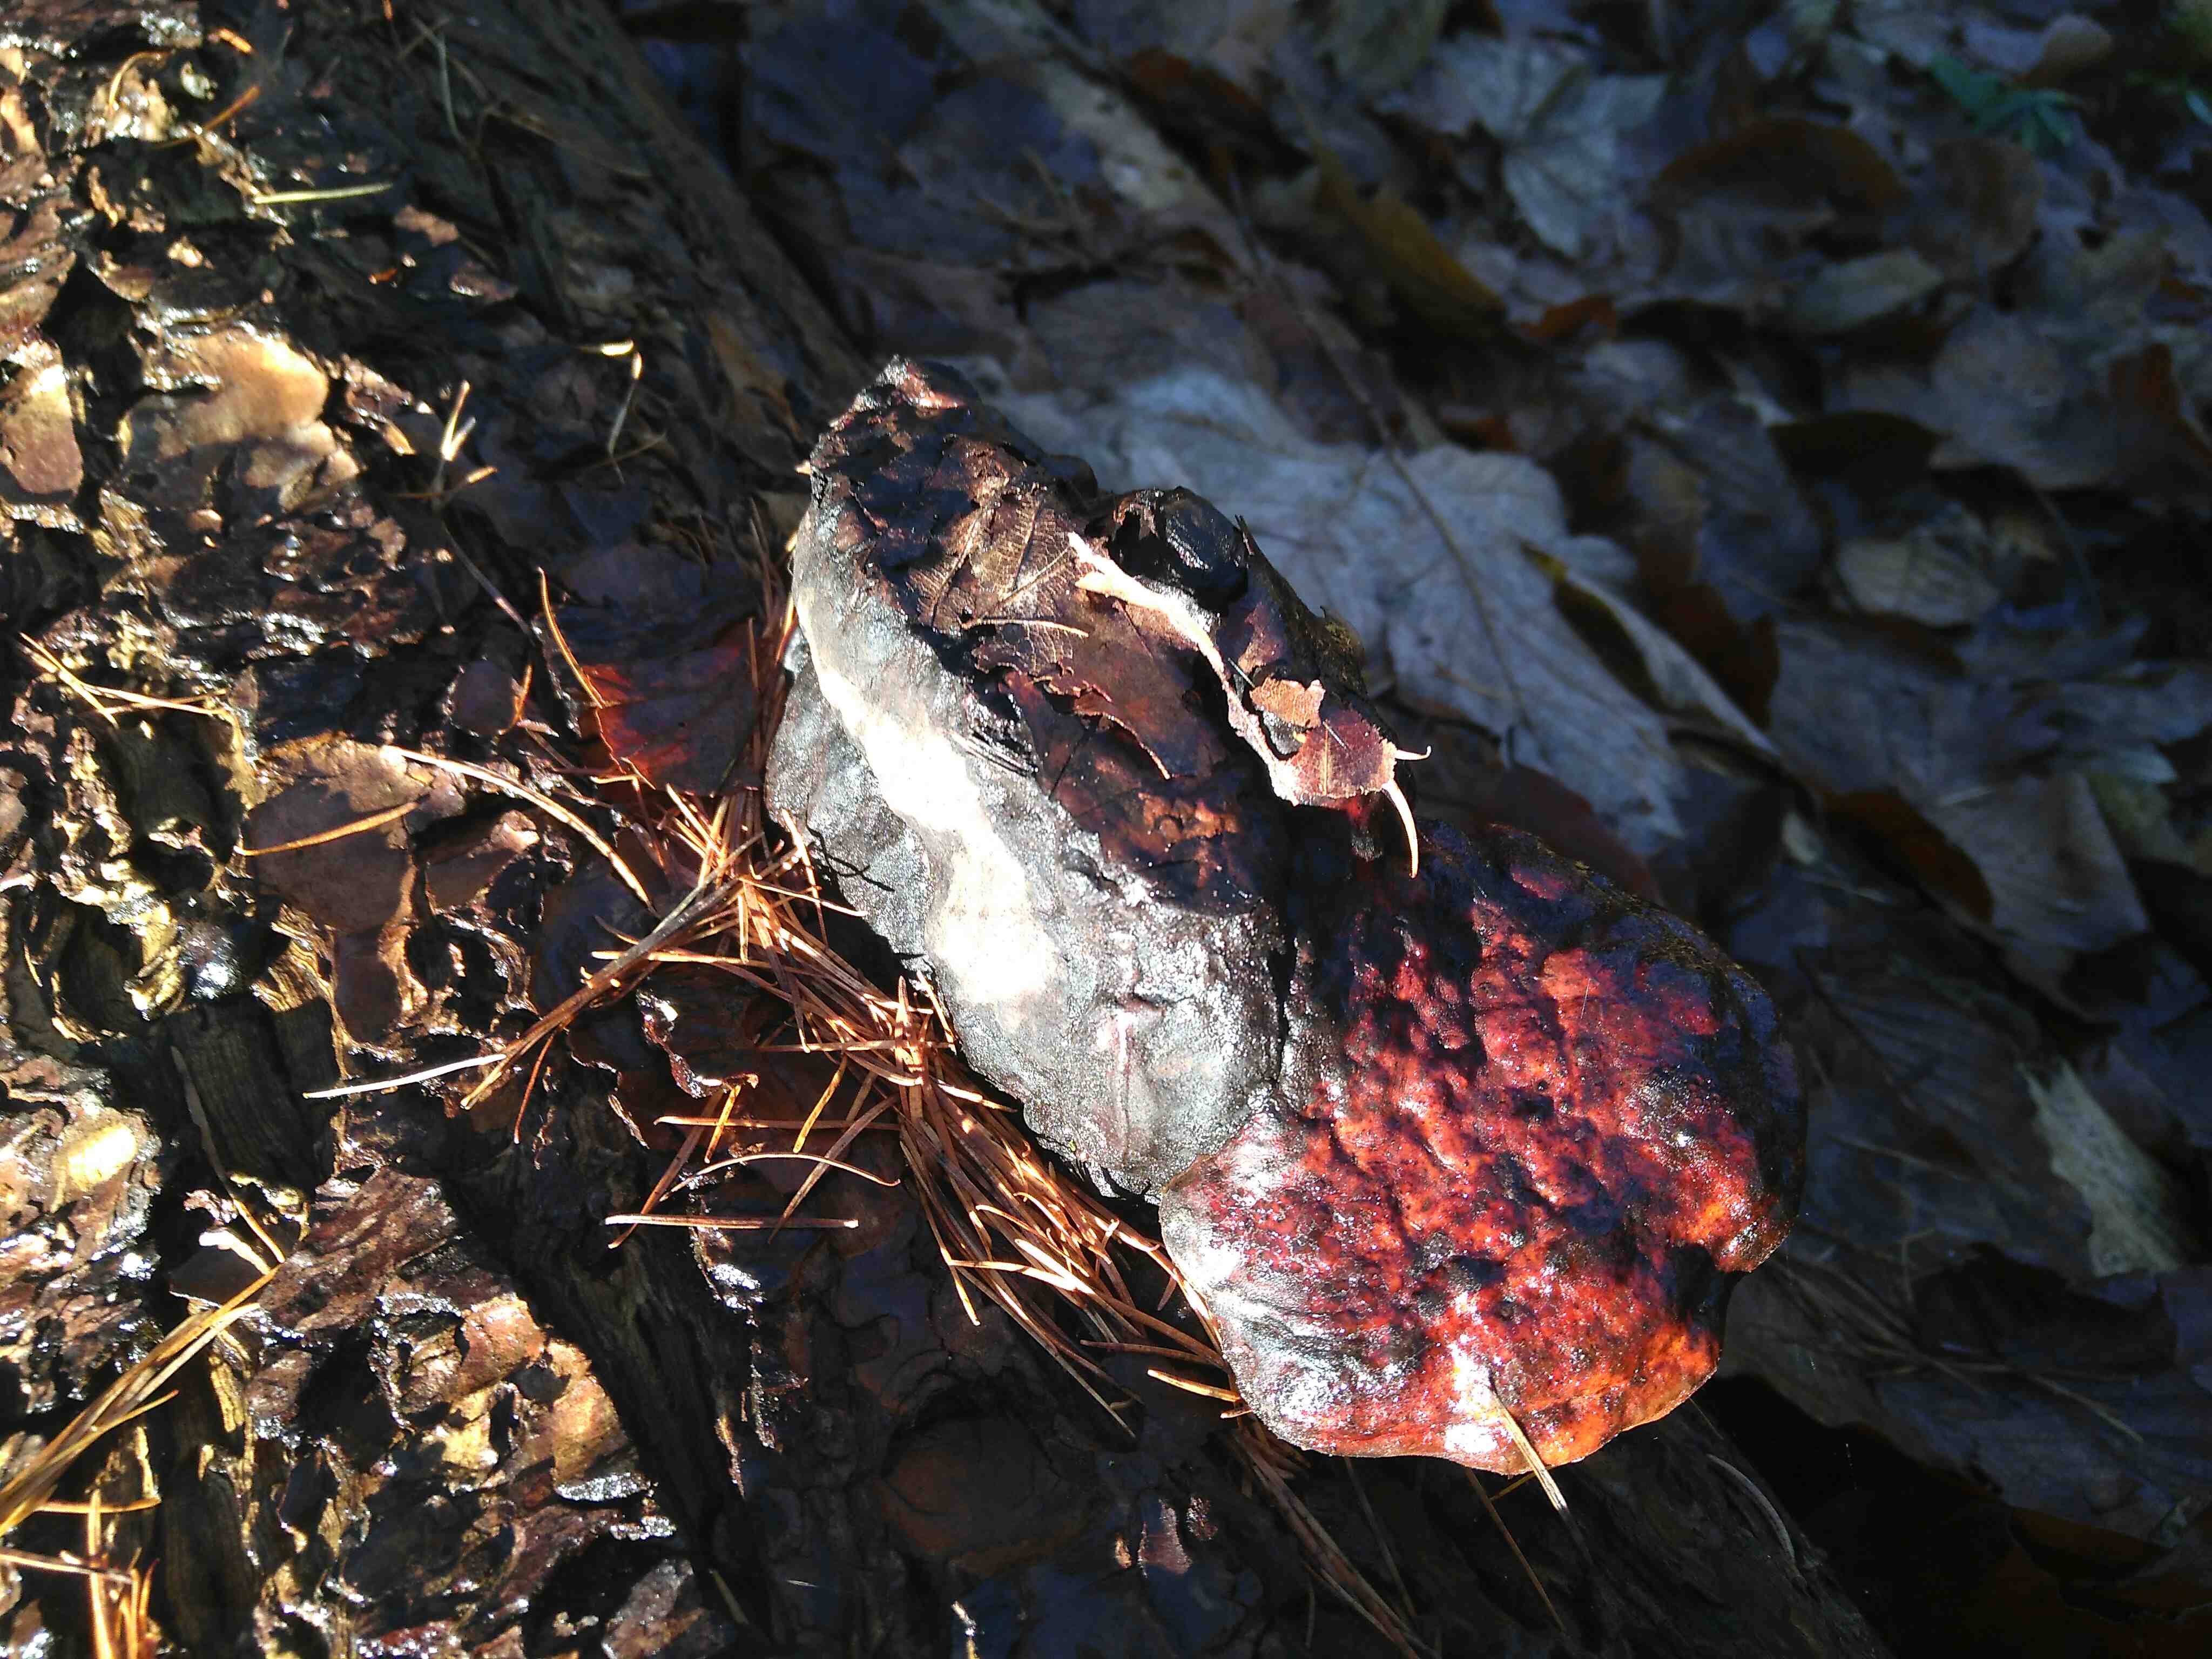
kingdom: Fungi
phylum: Basidiomycota
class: Agaricomycetes
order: Polyporales
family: Fomitopsidaceae
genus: Fomitopsis
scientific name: Fomitopsis pinicola
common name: randbæltet hovporesvamp
